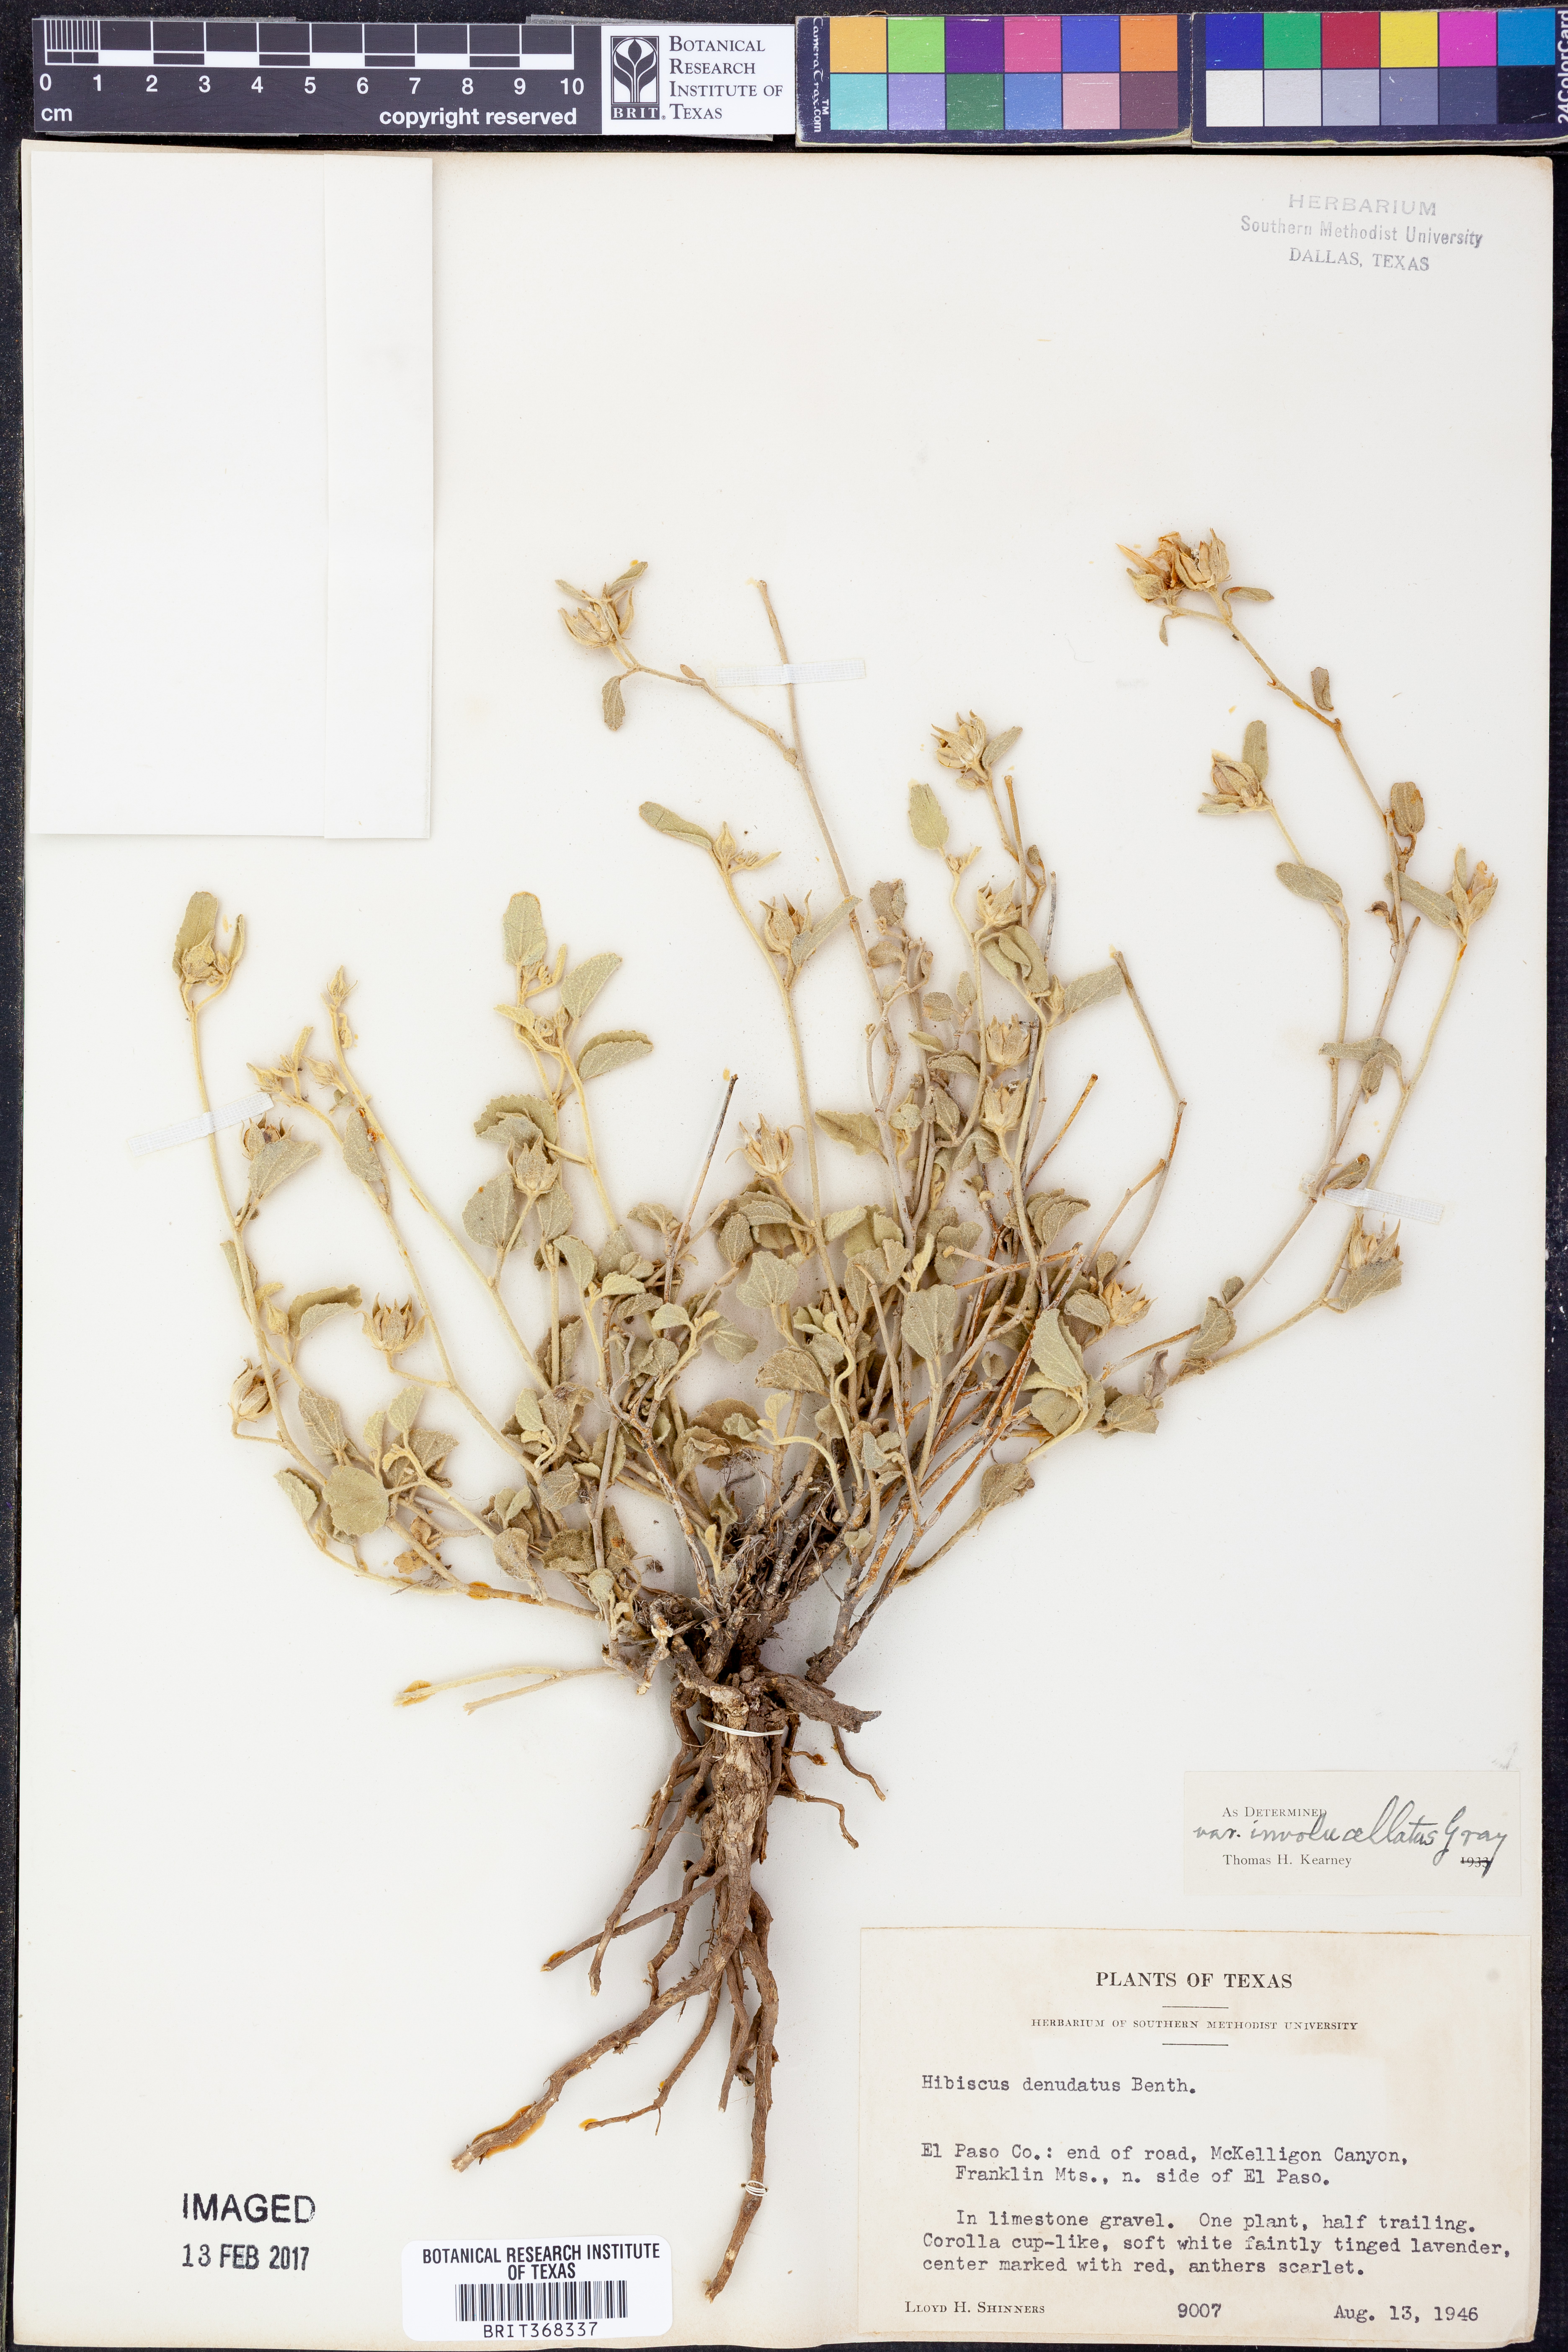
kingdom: Plantae
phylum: Tracheophyta
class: Magnoliopsida
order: Malvales
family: Malvaceae
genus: Hibiscus
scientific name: Hibiscus denudatus
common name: Paleface
